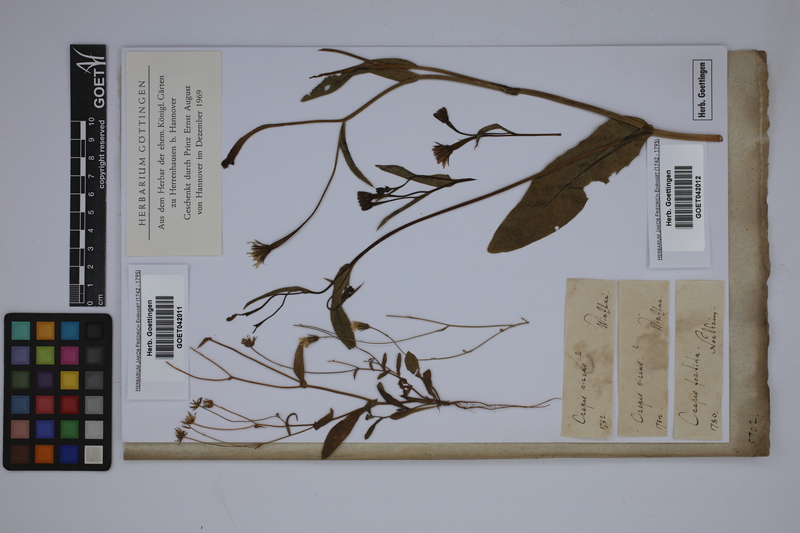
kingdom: Plantae
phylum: Tracheophyta
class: Magnoliopsida
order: Asterales
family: Asteraceae
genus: Crepis
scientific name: Crepis capillaris
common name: Smooth hawksbeard
